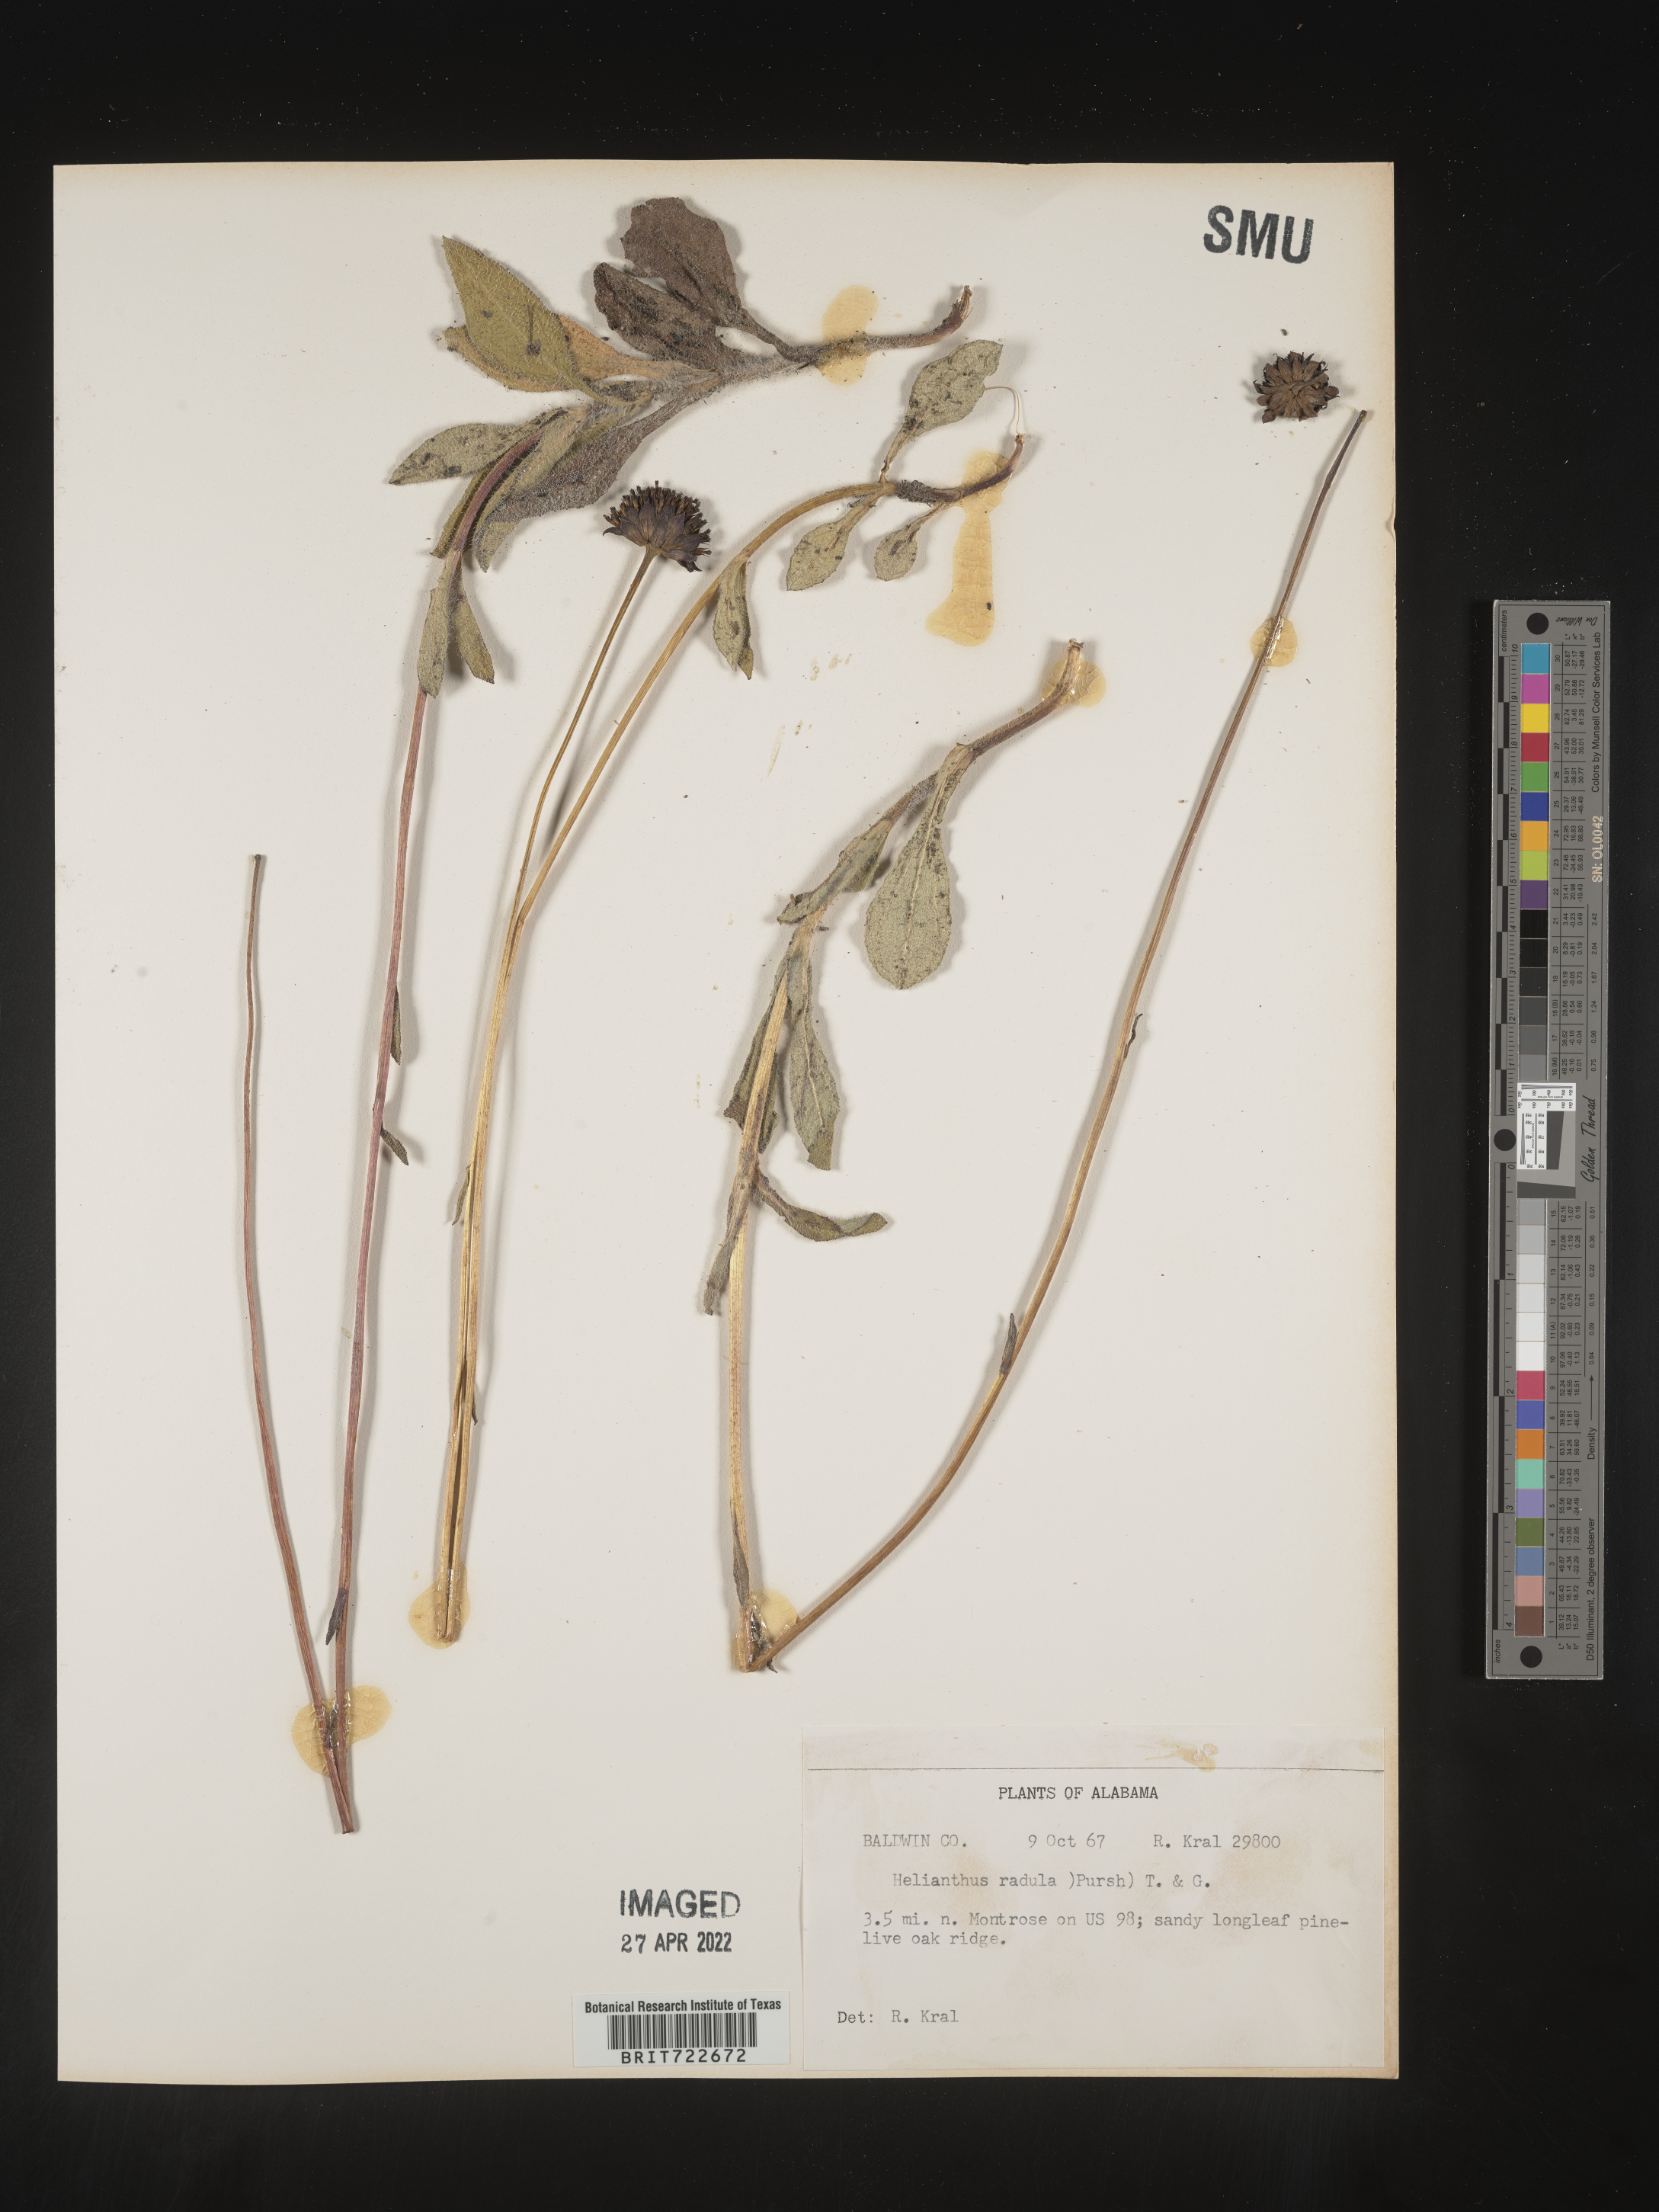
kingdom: Plantae
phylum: Tracheophyta
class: Magnoliopsida
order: Asterales
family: Asteraceae
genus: Helianthus
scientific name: Helianthus radula
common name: Pineland sunflower
